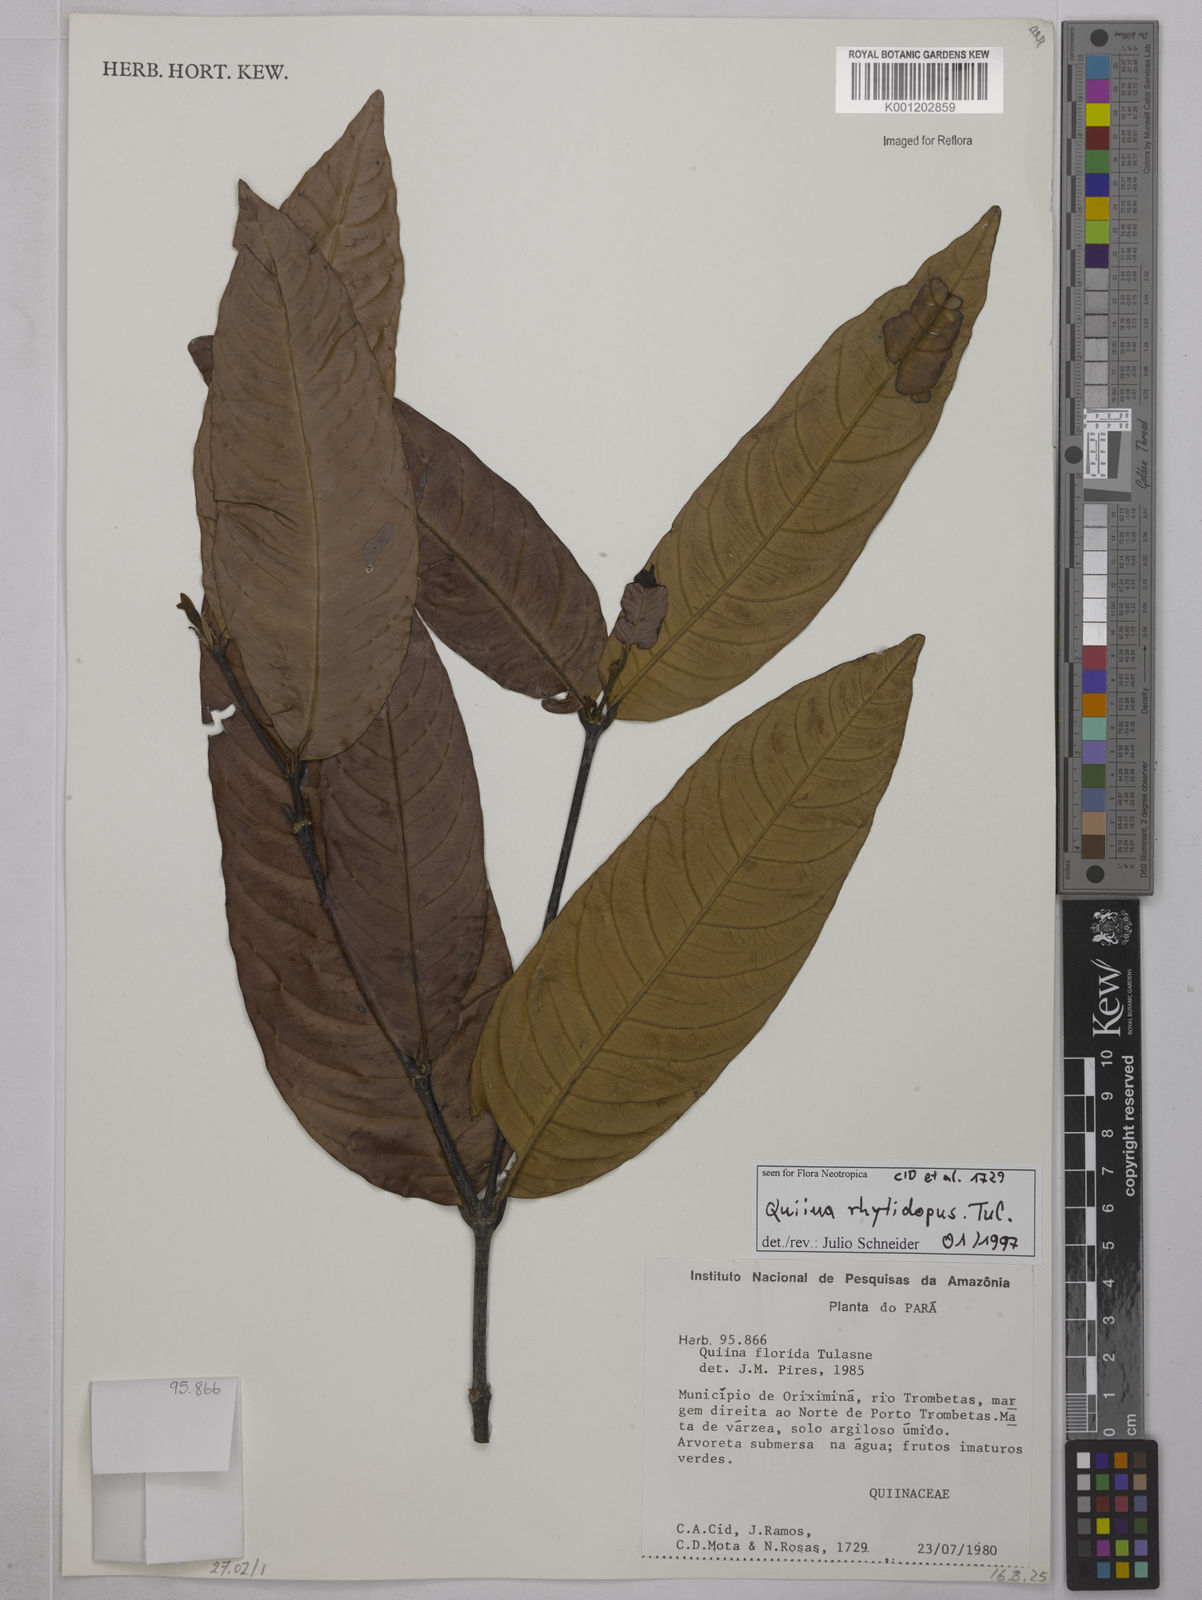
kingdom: Plantae
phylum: Tracheophyta
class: Magnoliopsida
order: Malpighiales
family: Quiinaceae
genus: Quiina
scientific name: Quiina rhytidopus
